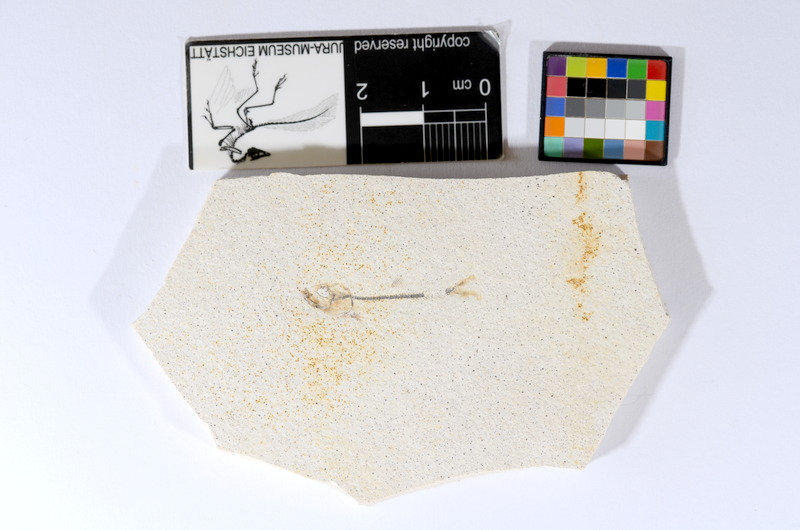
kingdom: Animalia
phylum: Chordata
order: Salmoniformes
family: Orthogonikleithridae
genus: Orthogonikleithrus
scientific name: Orthogonikleithrus hoelli
